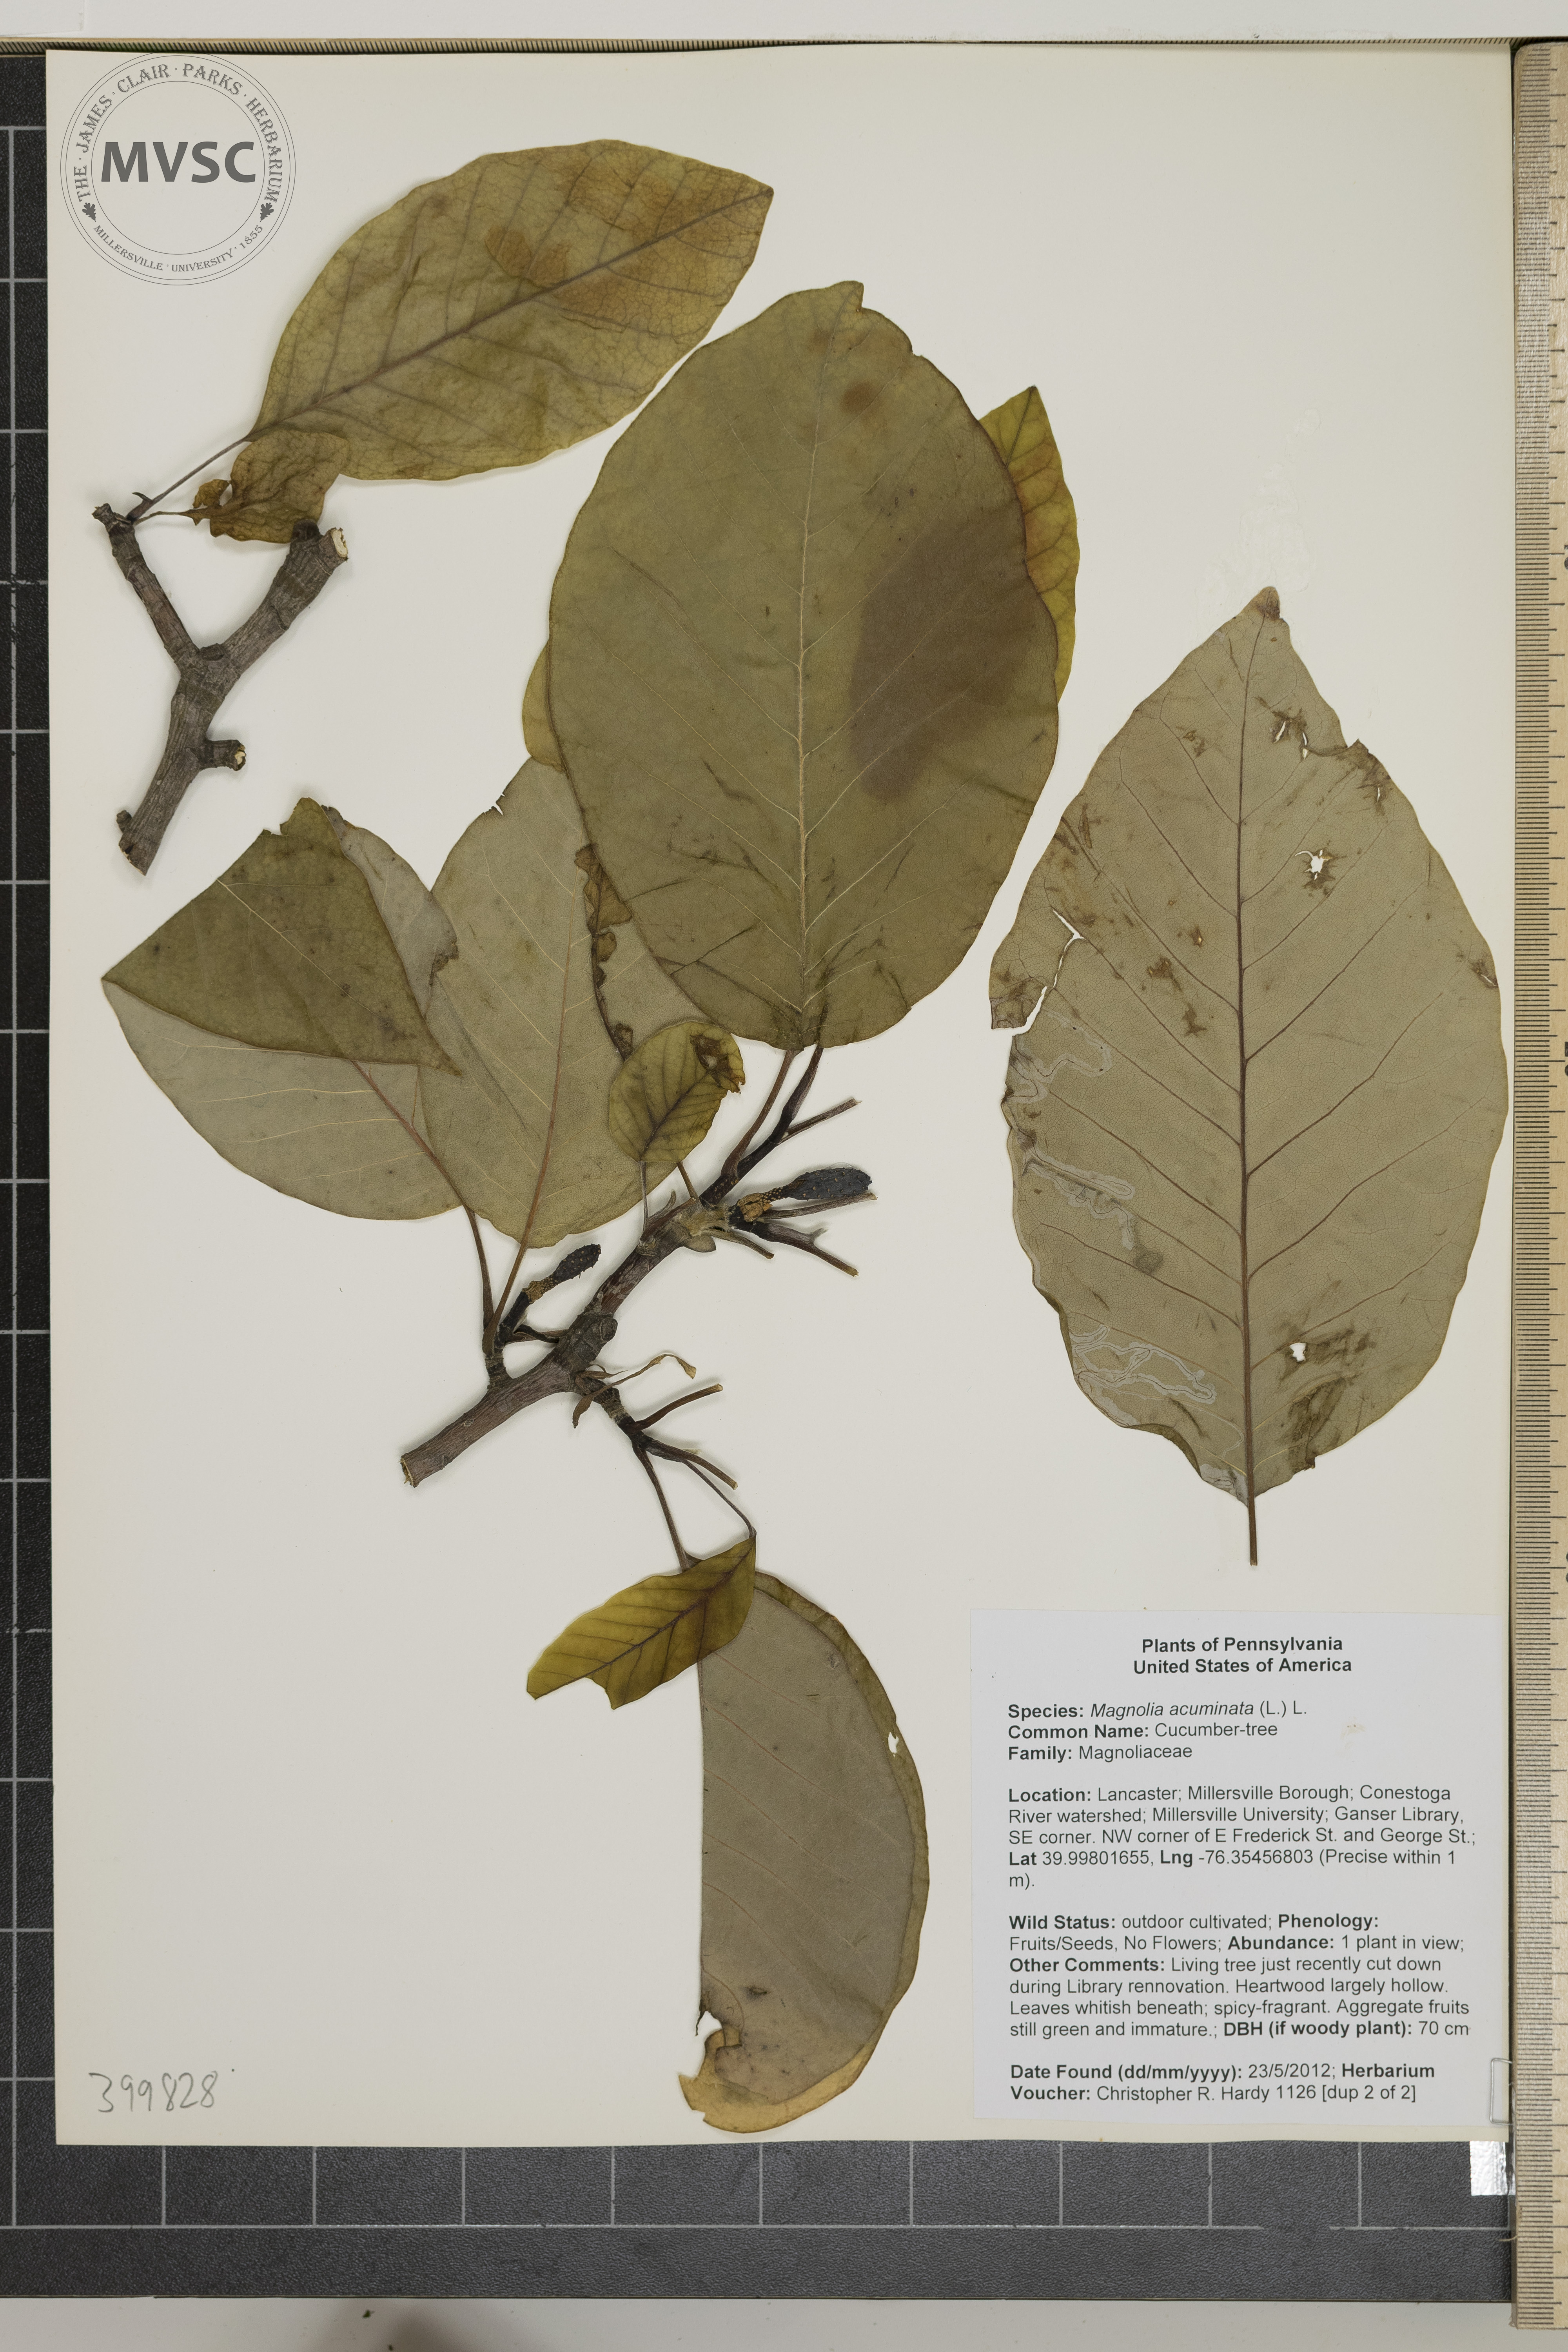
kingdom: Plantae
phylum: Tracheophyta
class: Magnoliopsida
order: Magnoliales
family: Magnoliaceae
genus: Magnolia
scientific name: Magnolia acuminata
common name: cucumber-tree
